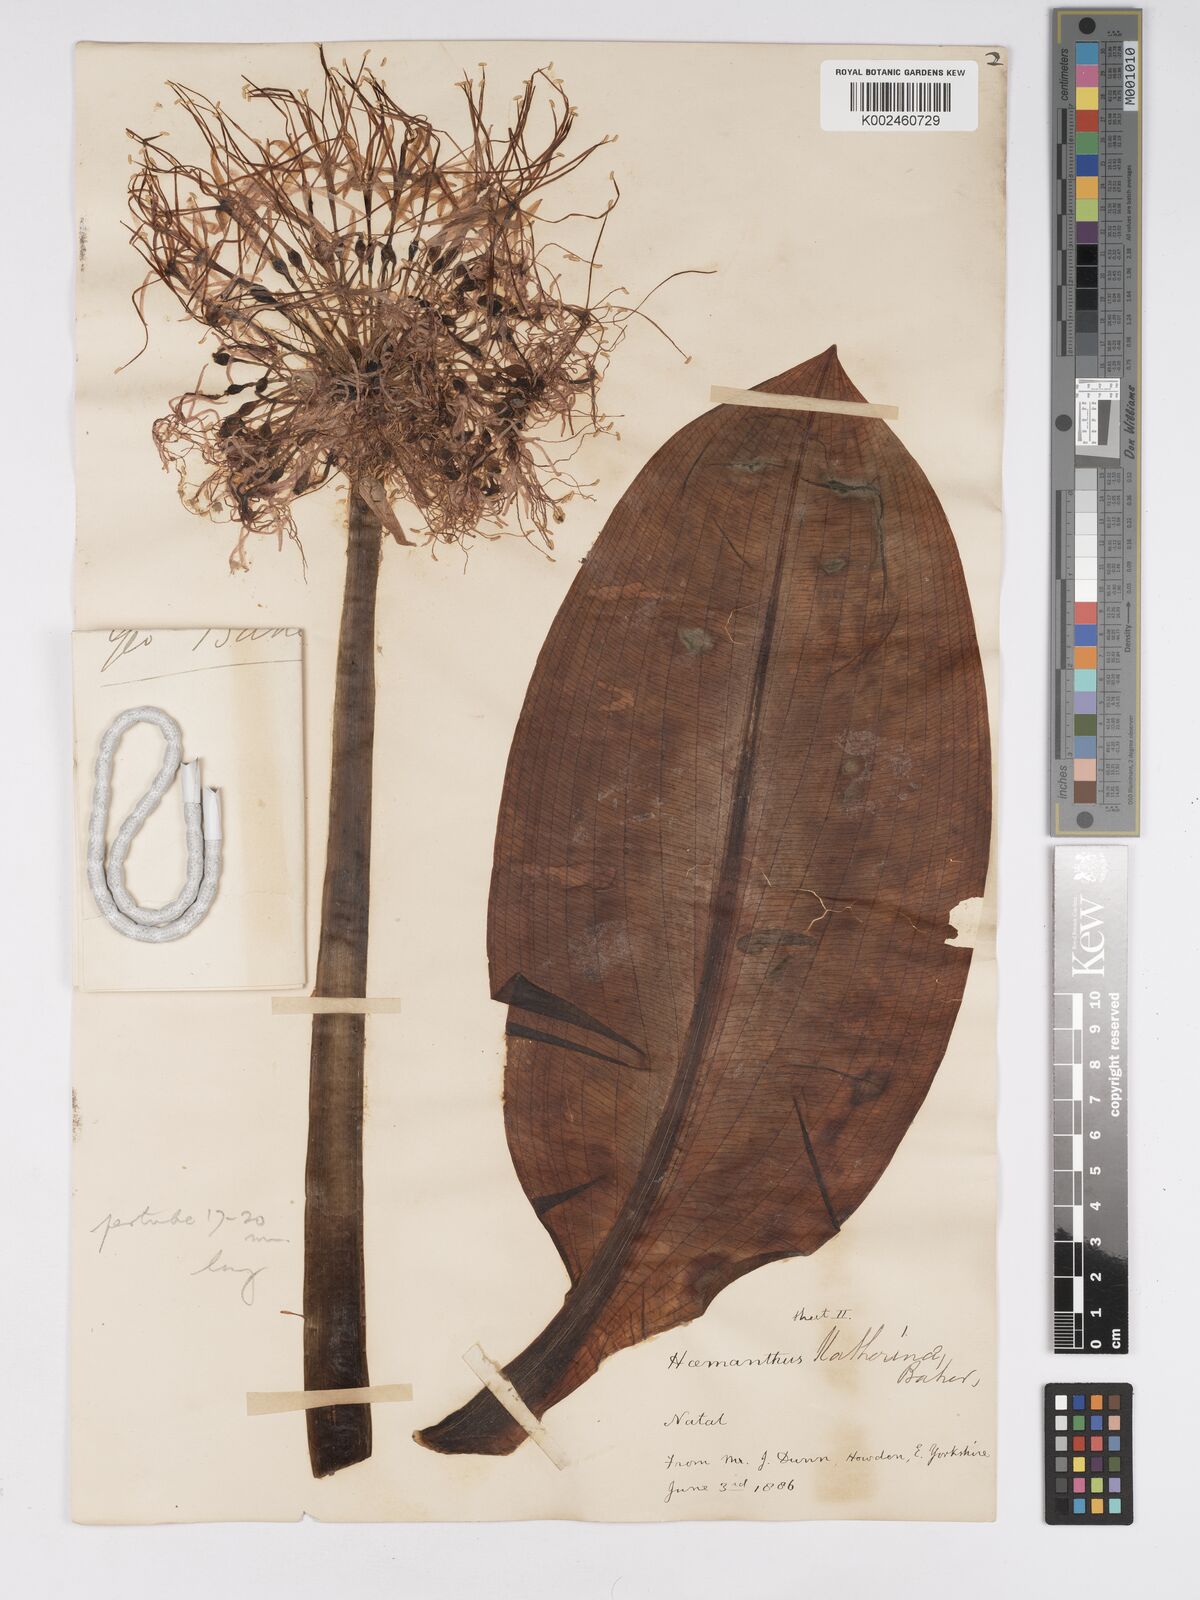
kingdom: Plantae
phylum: Tracheophyta
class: Liliopsida
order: Asparagales
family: Amaryllidaceae
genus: Scadoxus
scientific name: Scadoxus multiflorus
